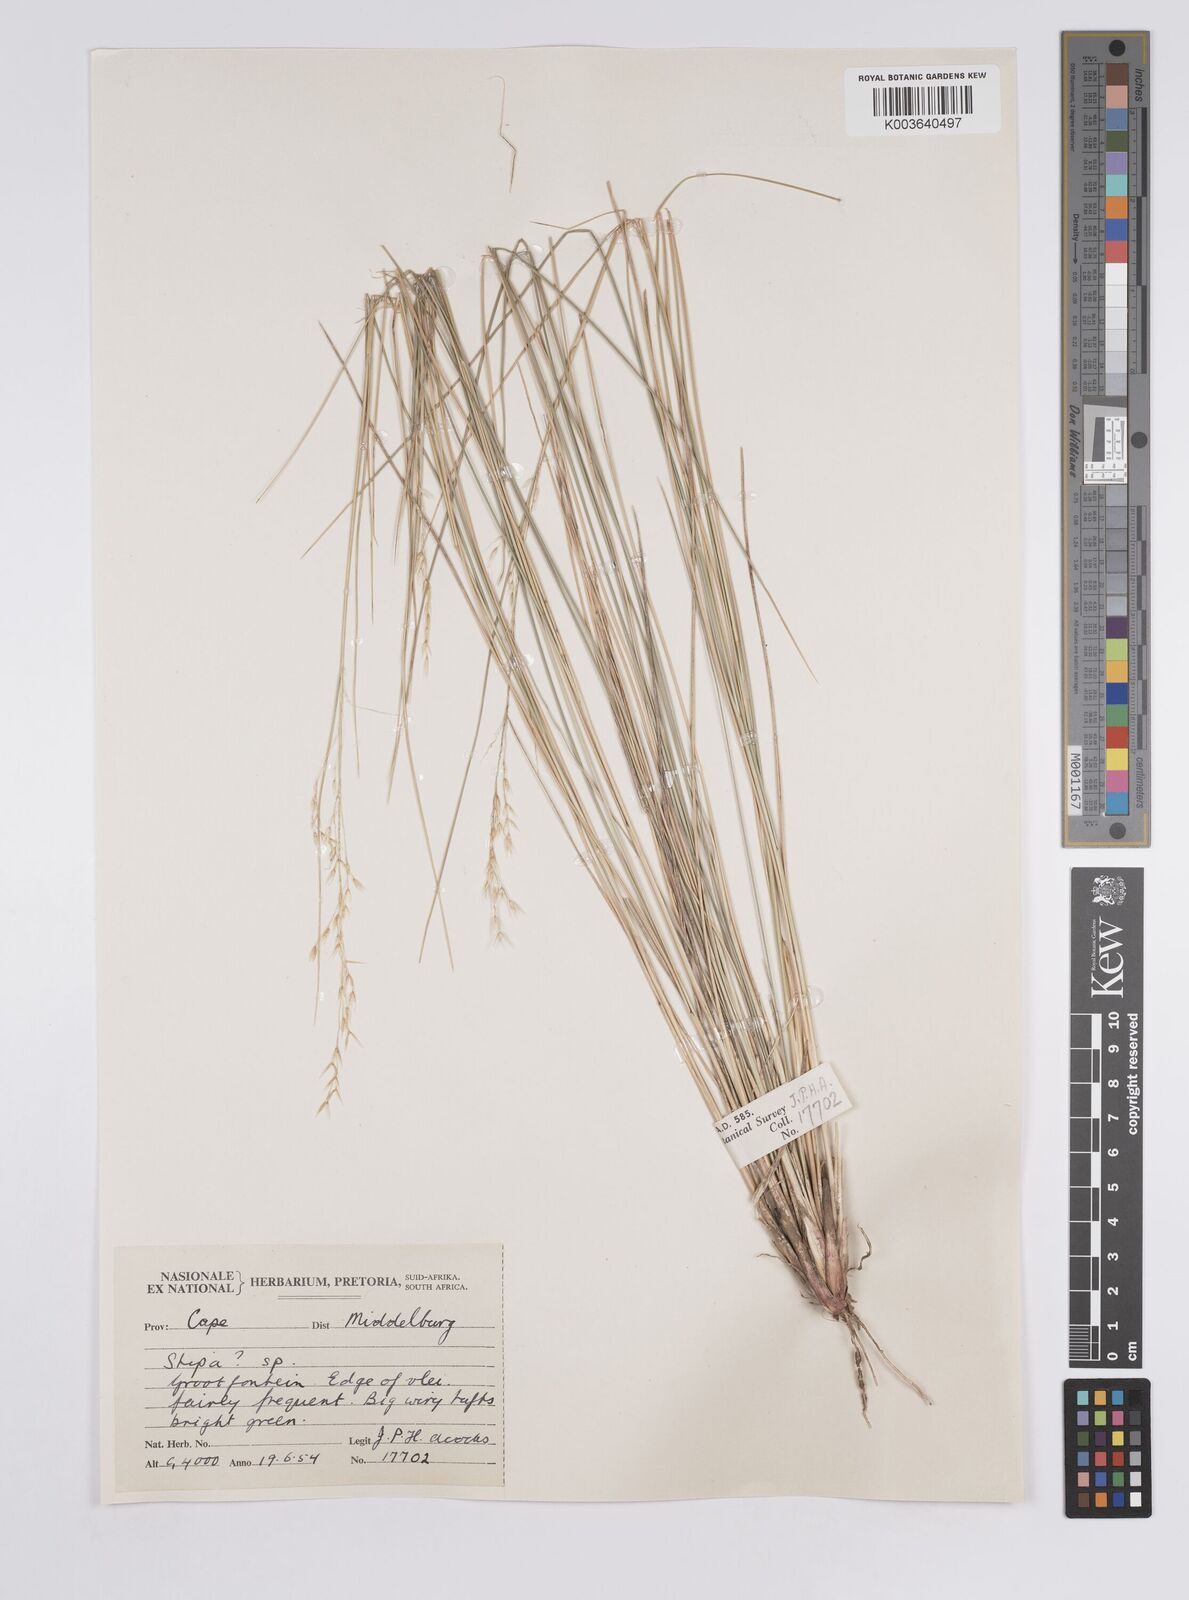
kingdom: Plantae
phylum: Tracheophyta
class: Liliopsida
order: Poales
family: Poaceae
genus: Aristida
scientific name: Aristida
